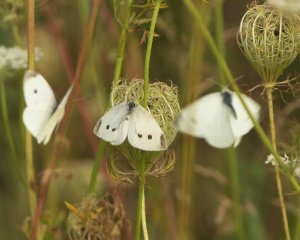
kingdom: Animalia
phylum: Arthropoda
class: Insecta
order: Lepidoptera
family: Pieridae
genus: Pieris
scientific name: Pieris rapae
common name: Cabbage White
